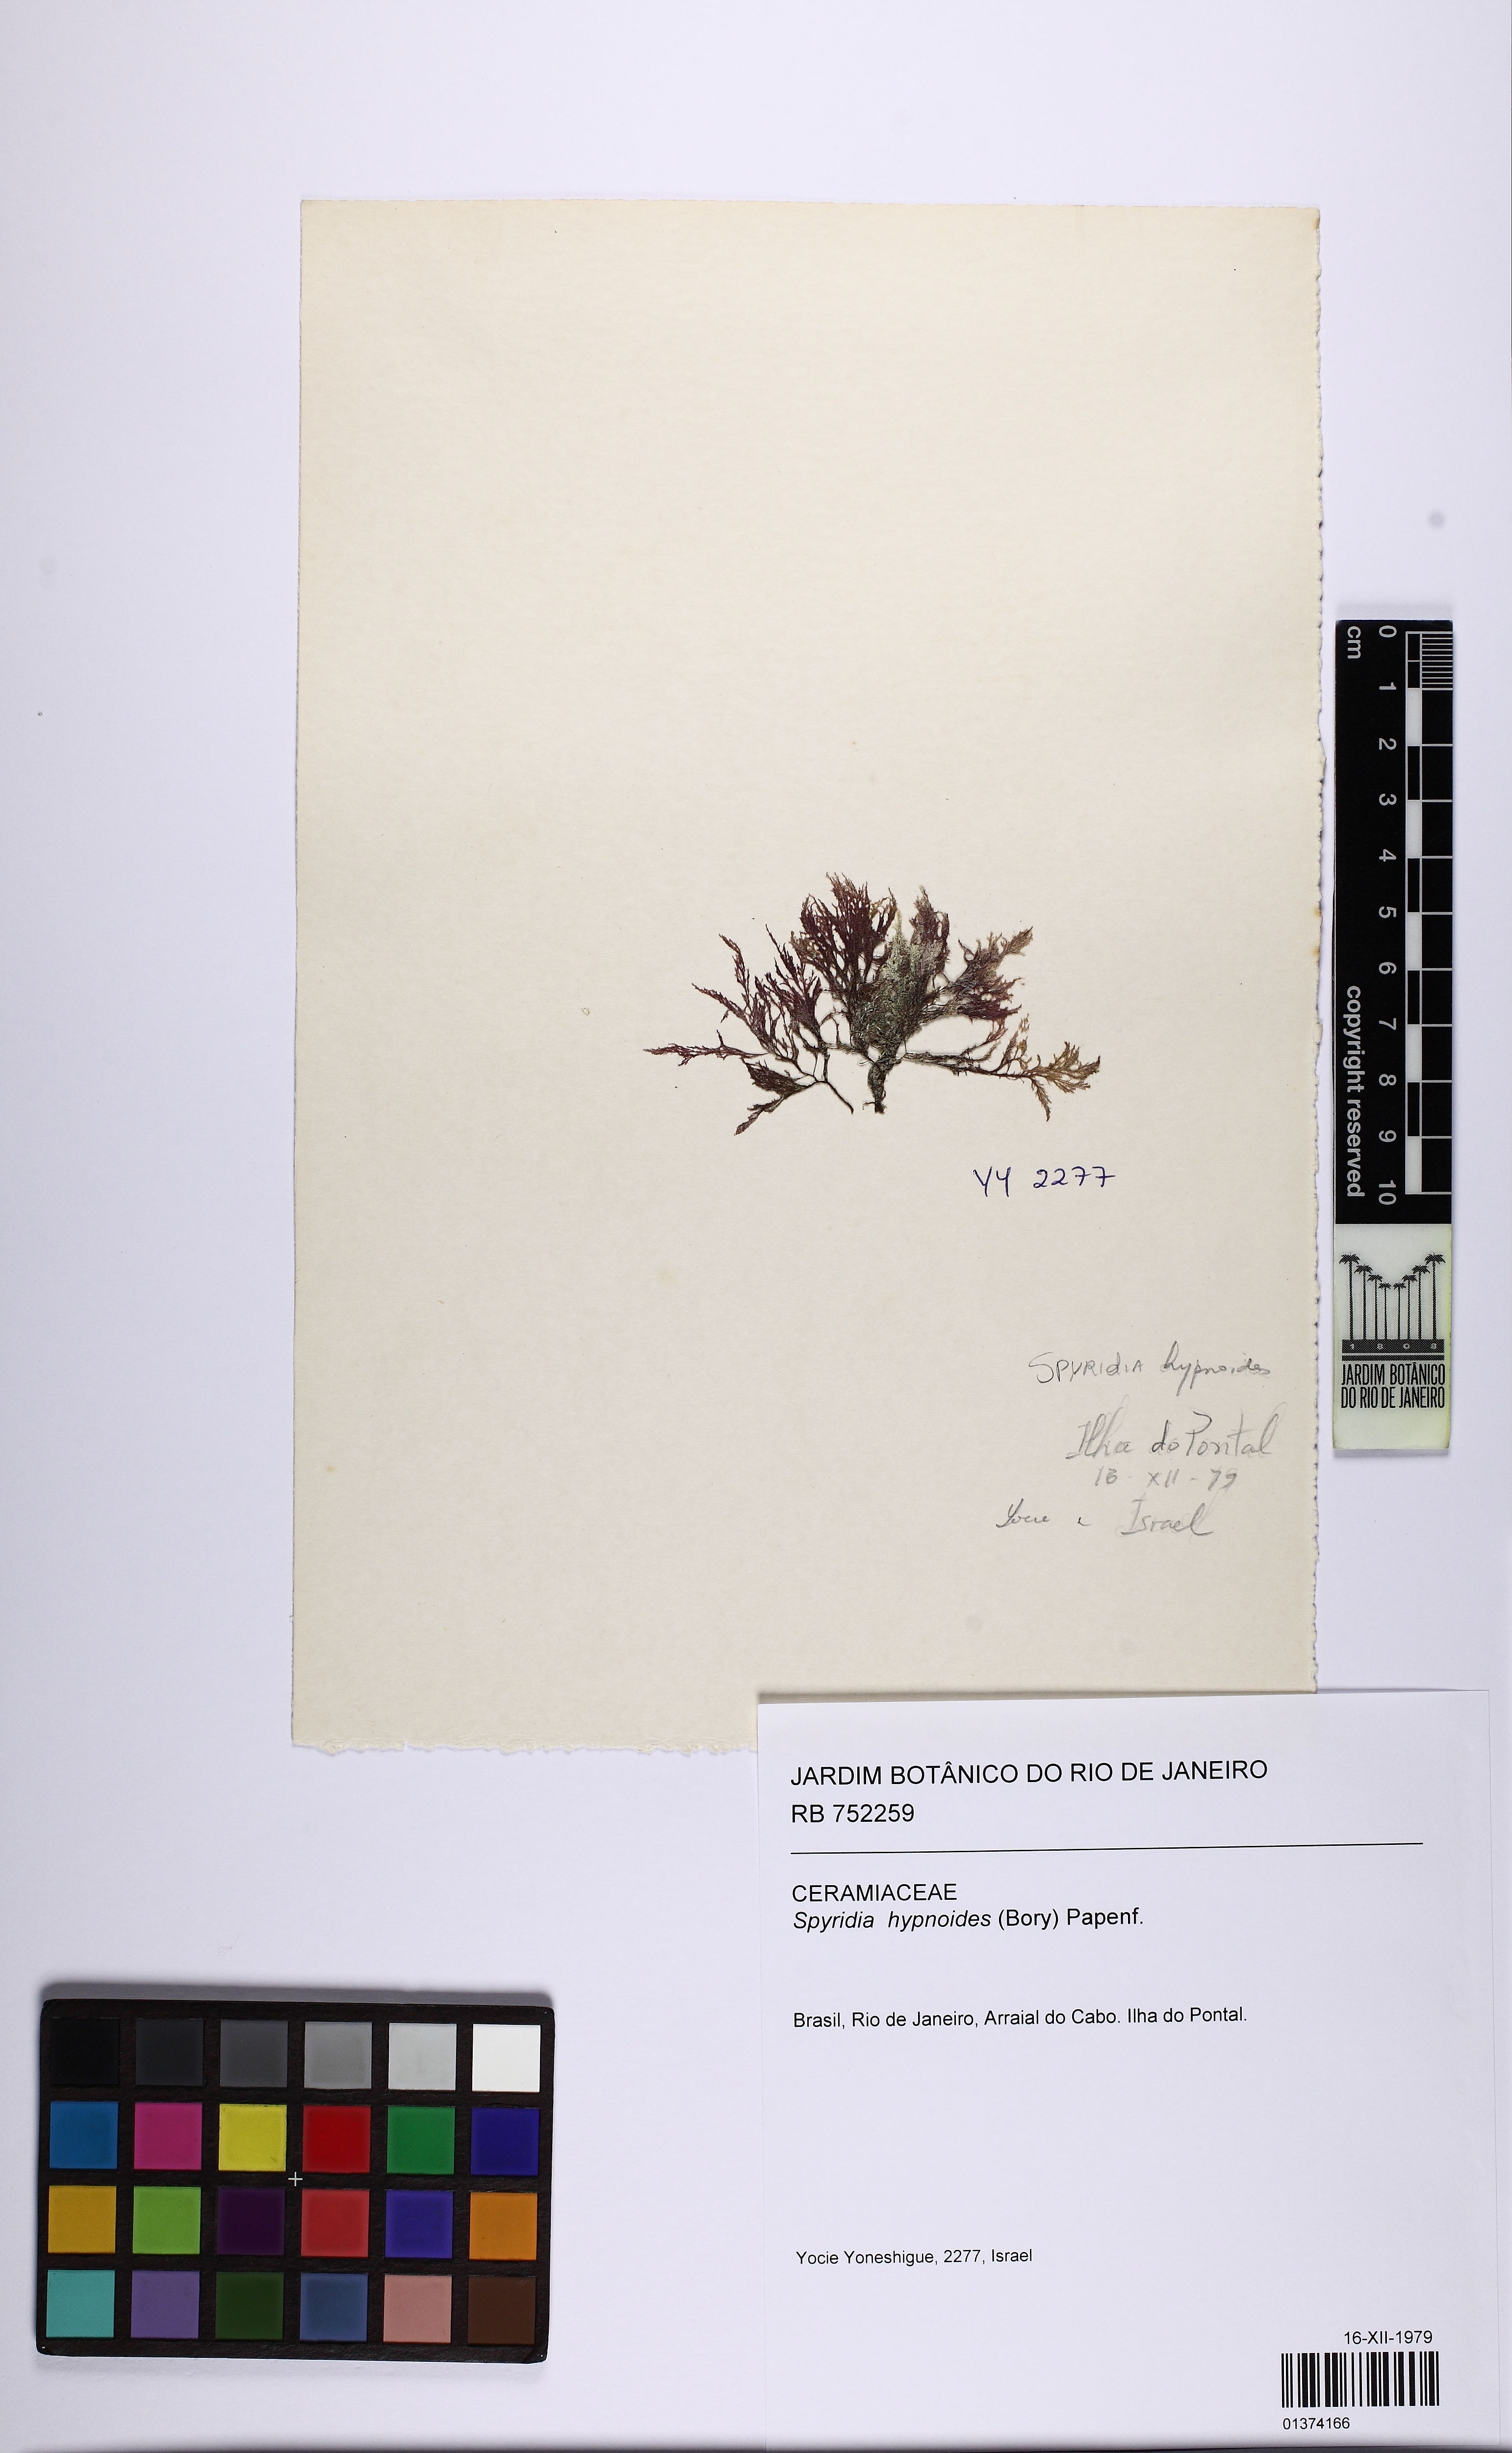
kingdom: Plantae
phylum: Rhodophyta
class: Florideophyceae
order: Ceramiales
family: Spyridiaceae
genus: Spyridia
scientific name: Spyridia hypnoides
